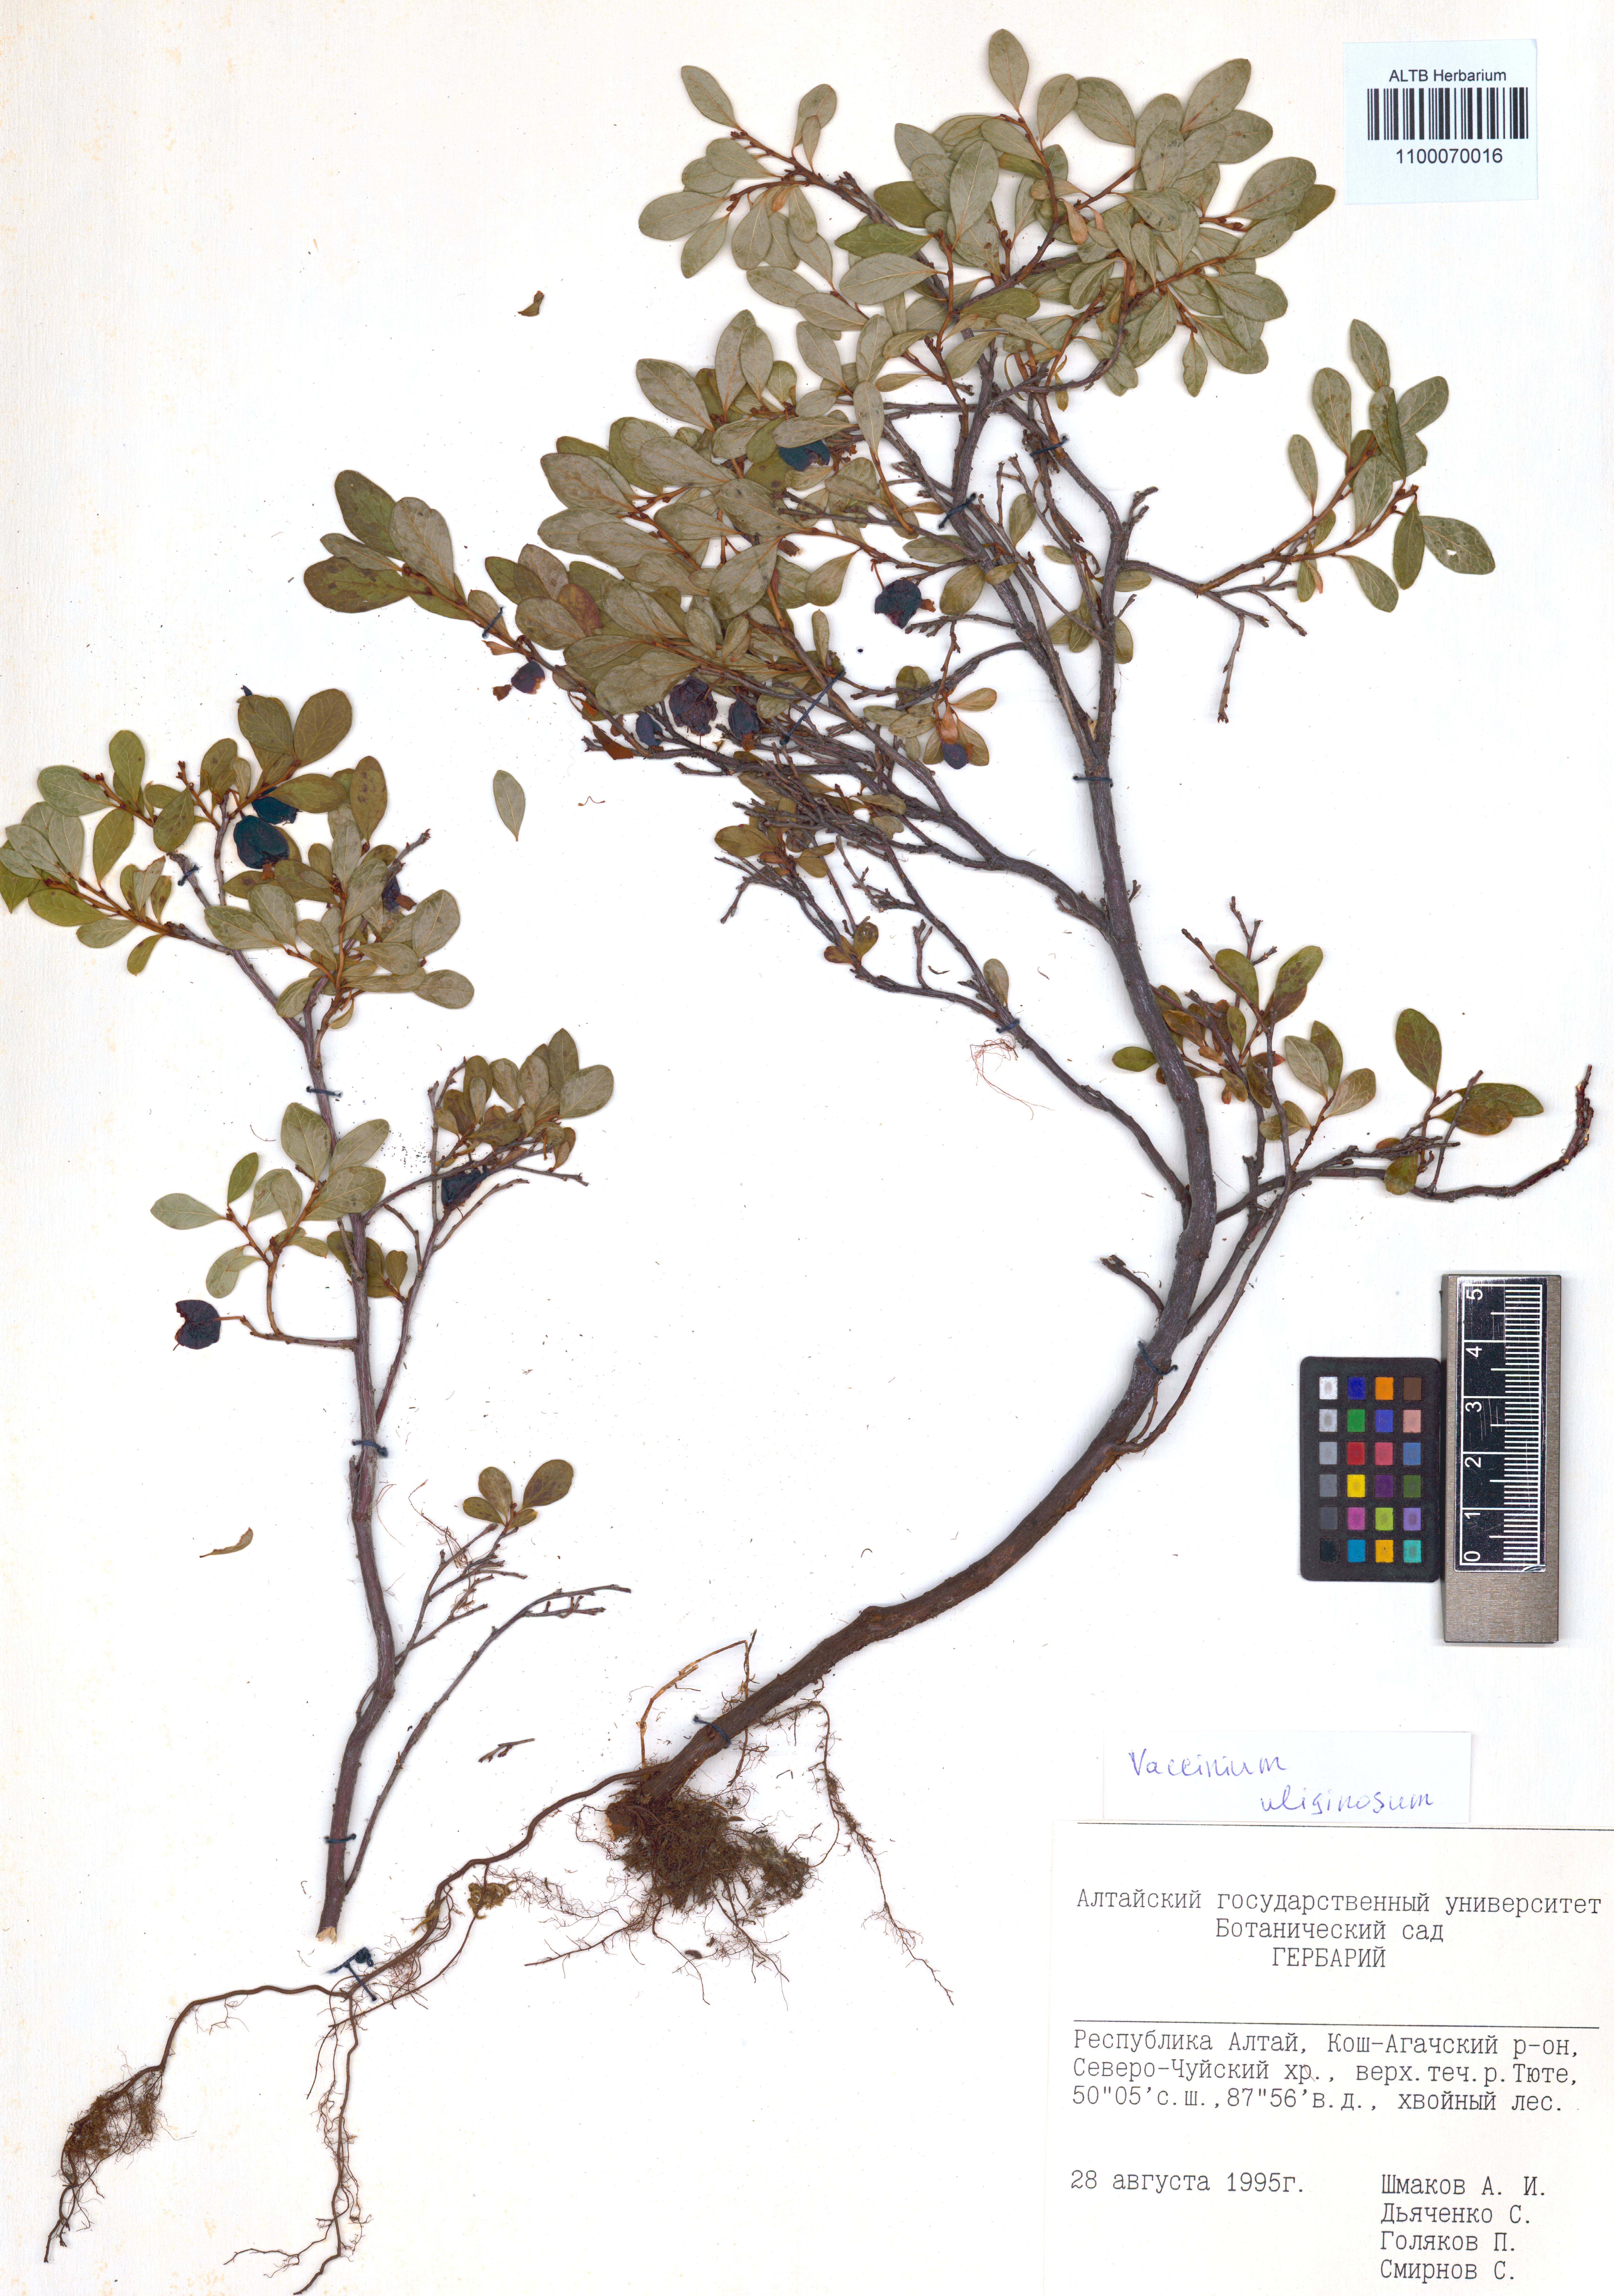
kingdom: Plantae
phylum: Tracheophyta
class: Magnoliopsida
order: Ericales
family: Ericaceae
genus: Vaccinium
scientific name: Vaccinium uliginosum
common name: Bog bilberry
